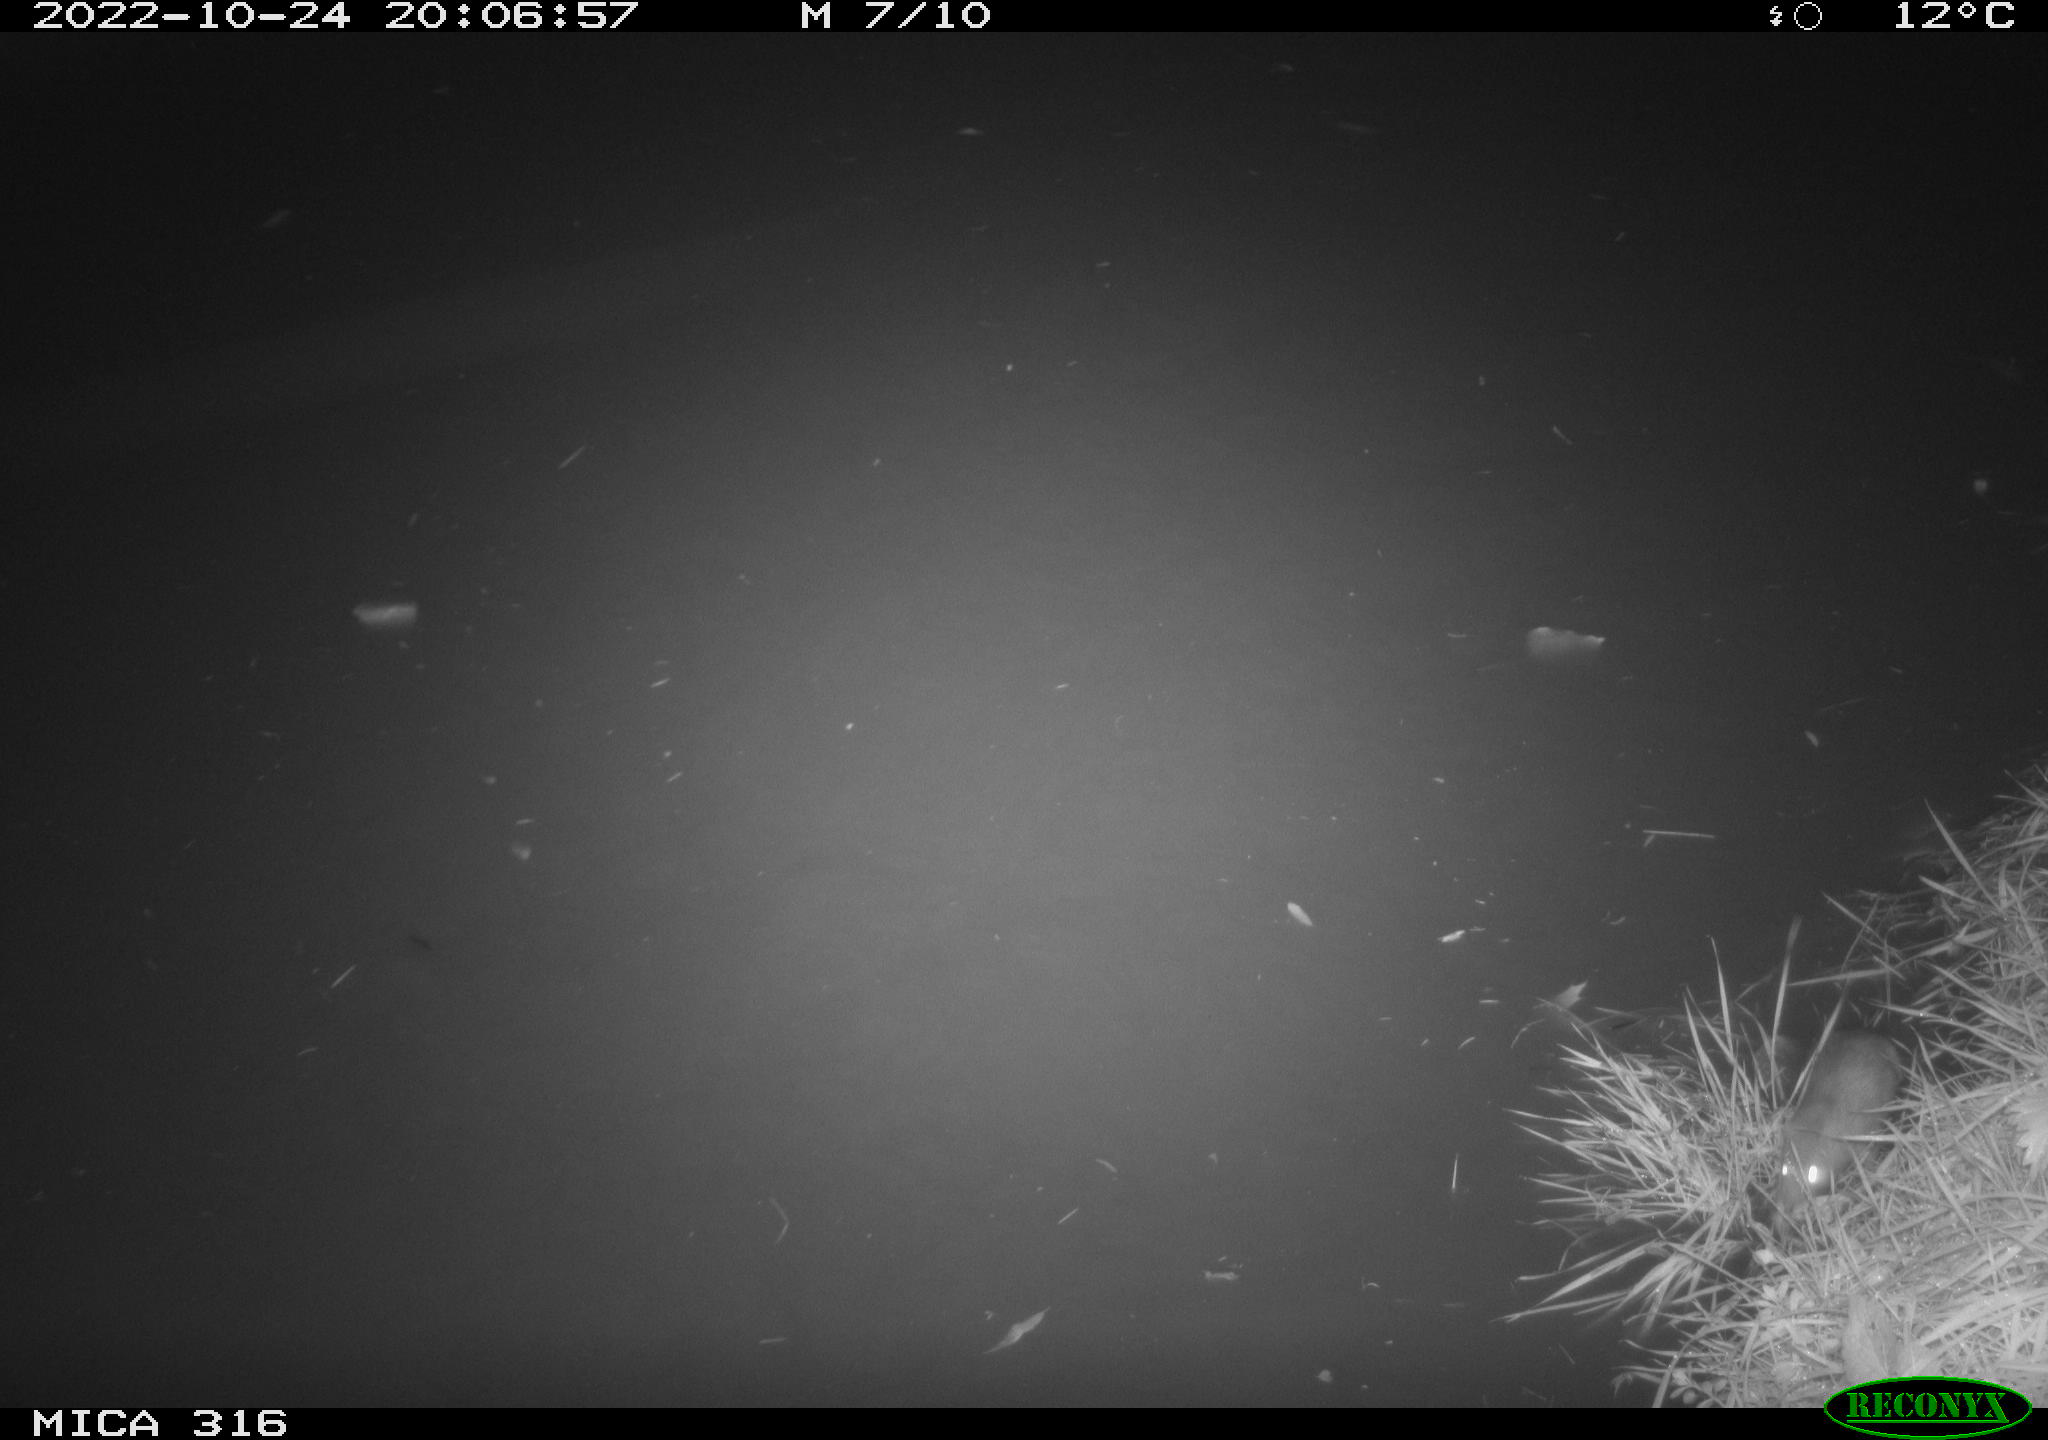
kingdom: Animalia
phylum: Chordata
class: Mammalia
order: Rodentia
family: Muridae
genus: Rattus
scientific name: Rattus norvegicus
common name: Brown rat
